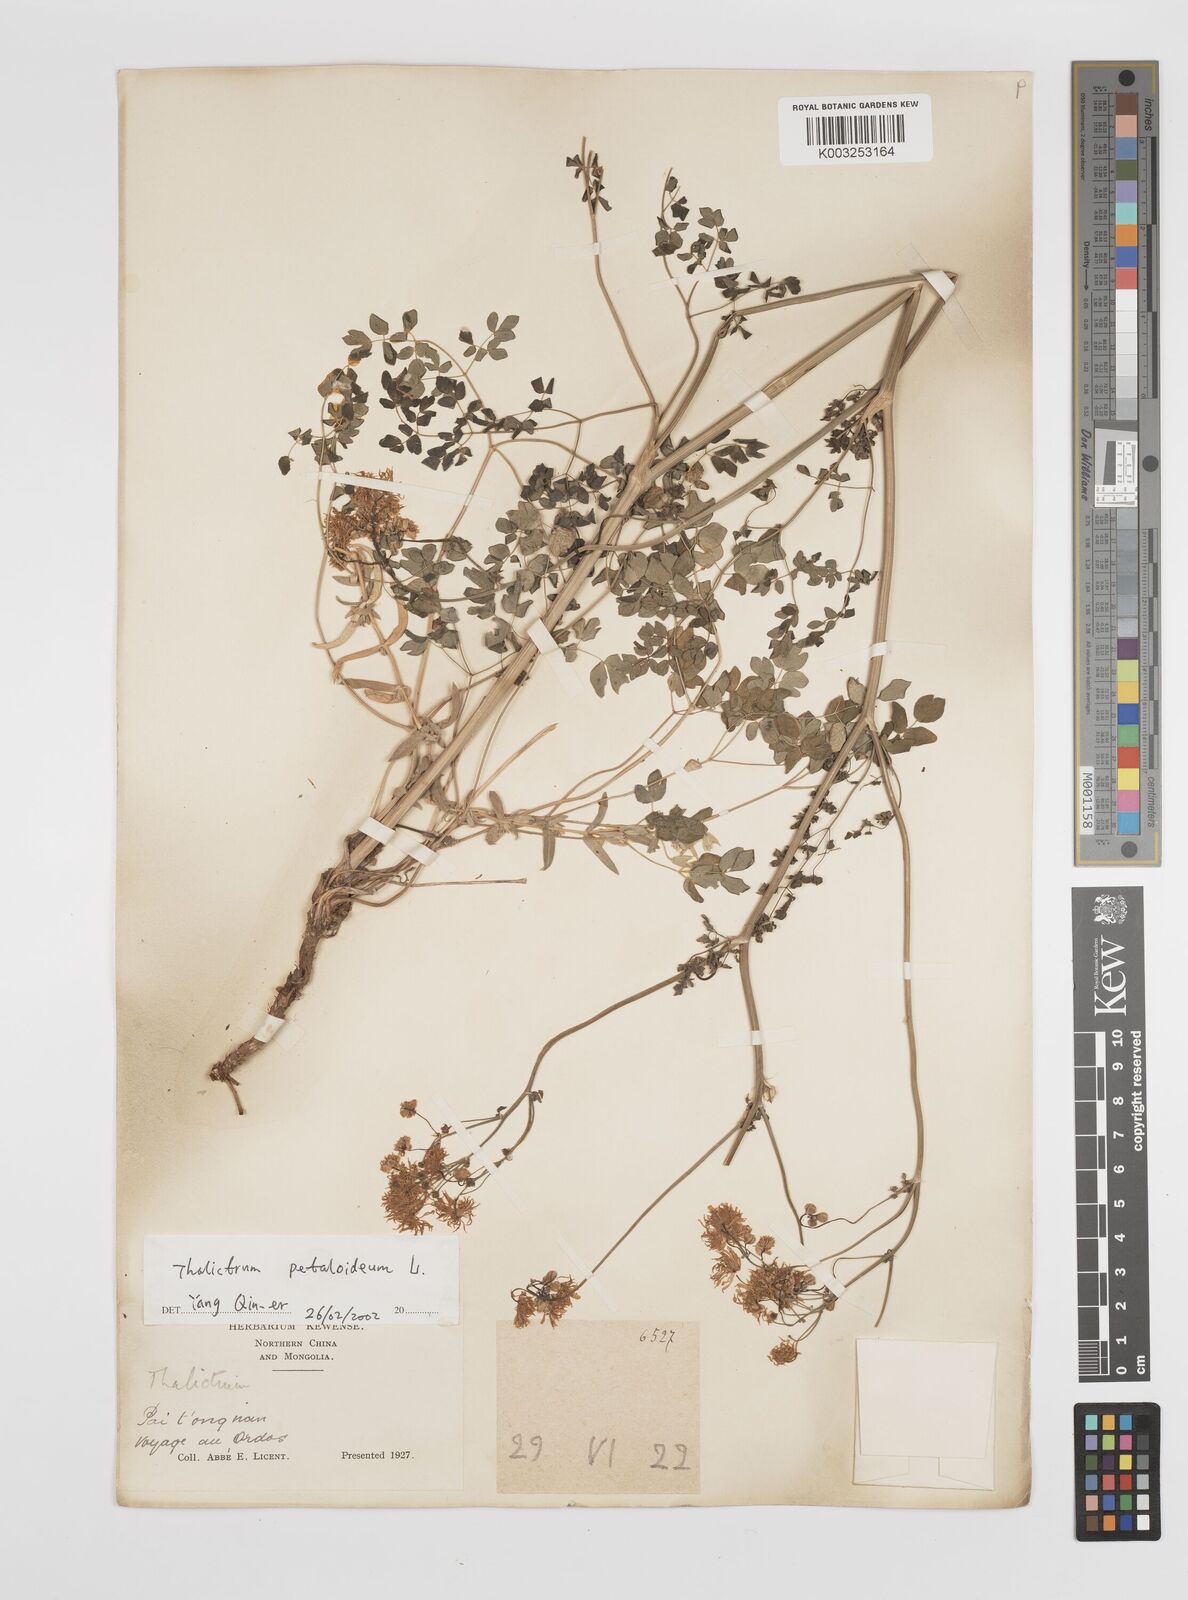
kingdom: Plantae
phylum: Tracheophyta
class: Magnoliopsida
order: Ranunculales
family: Ranunculaceae
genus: Thalictrum
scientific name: Thalictrum petaloideum
